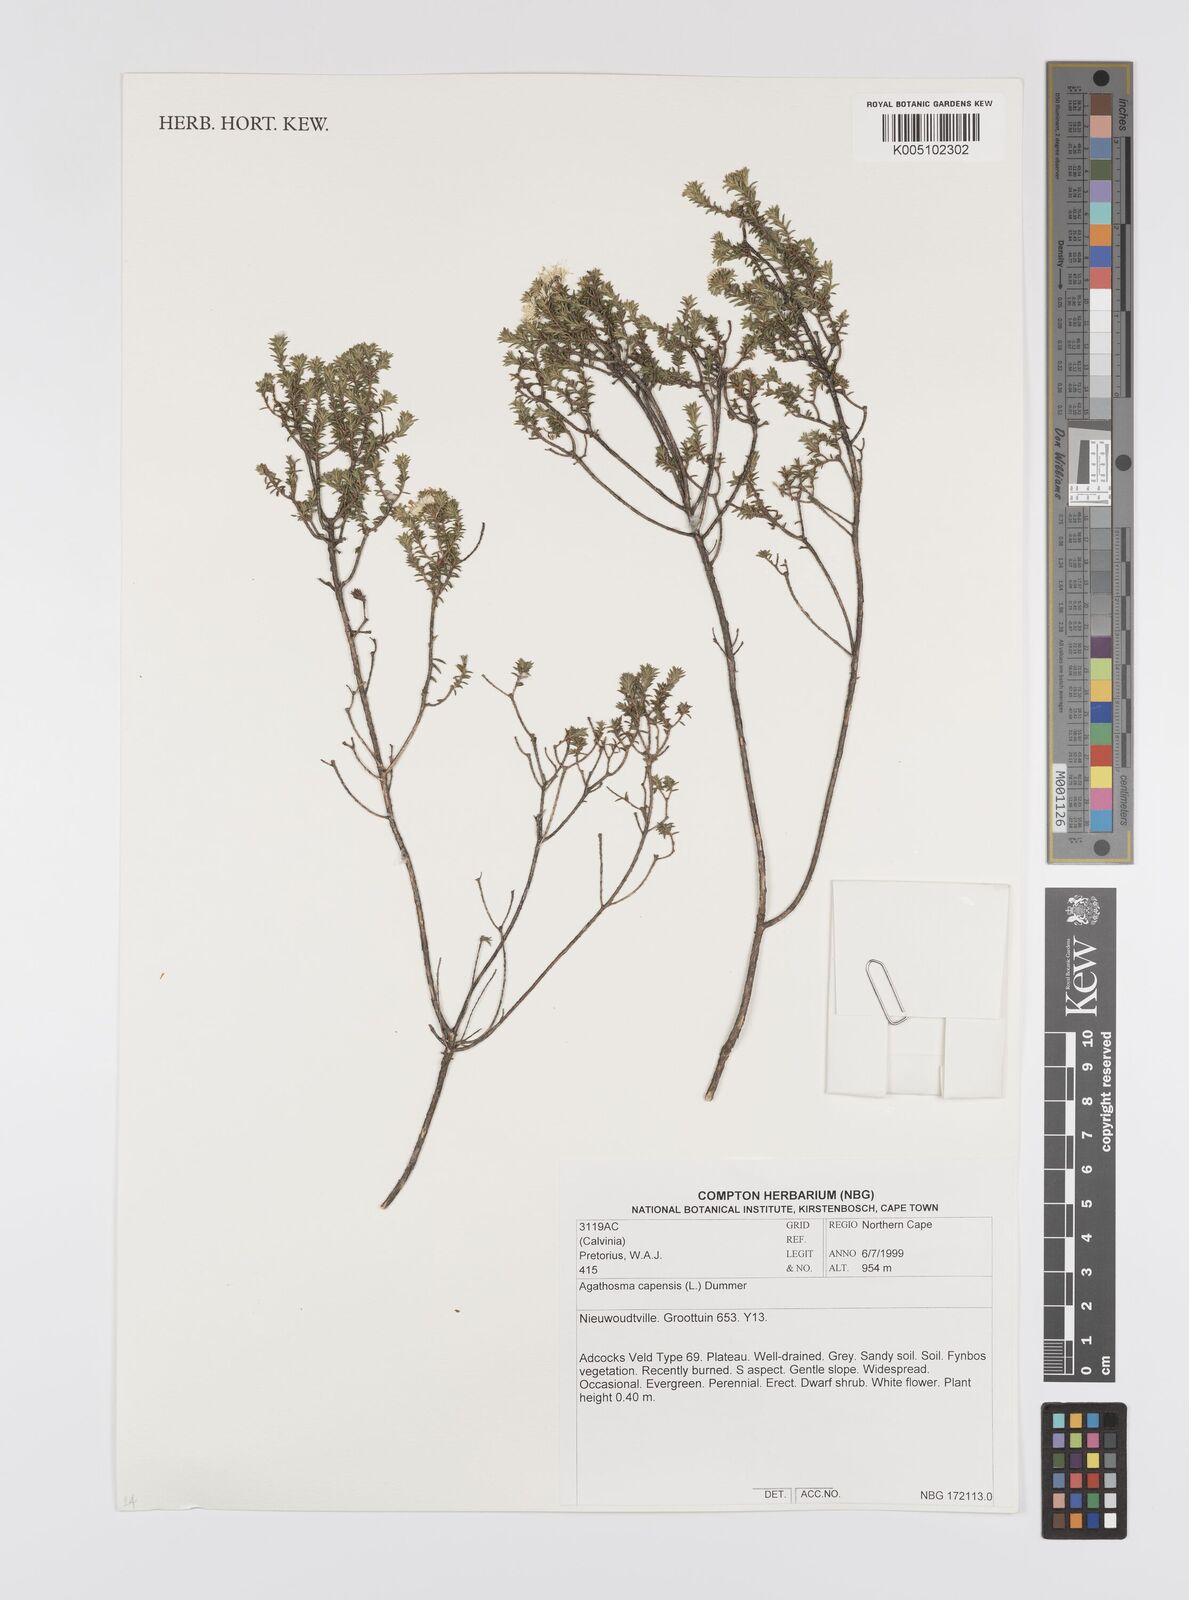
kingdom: Plantae
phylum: Tracheophyta
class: Magnoliopsida
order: Sapindales
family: Rutaceae
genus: Agathosma
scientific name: Agathosma capensis
